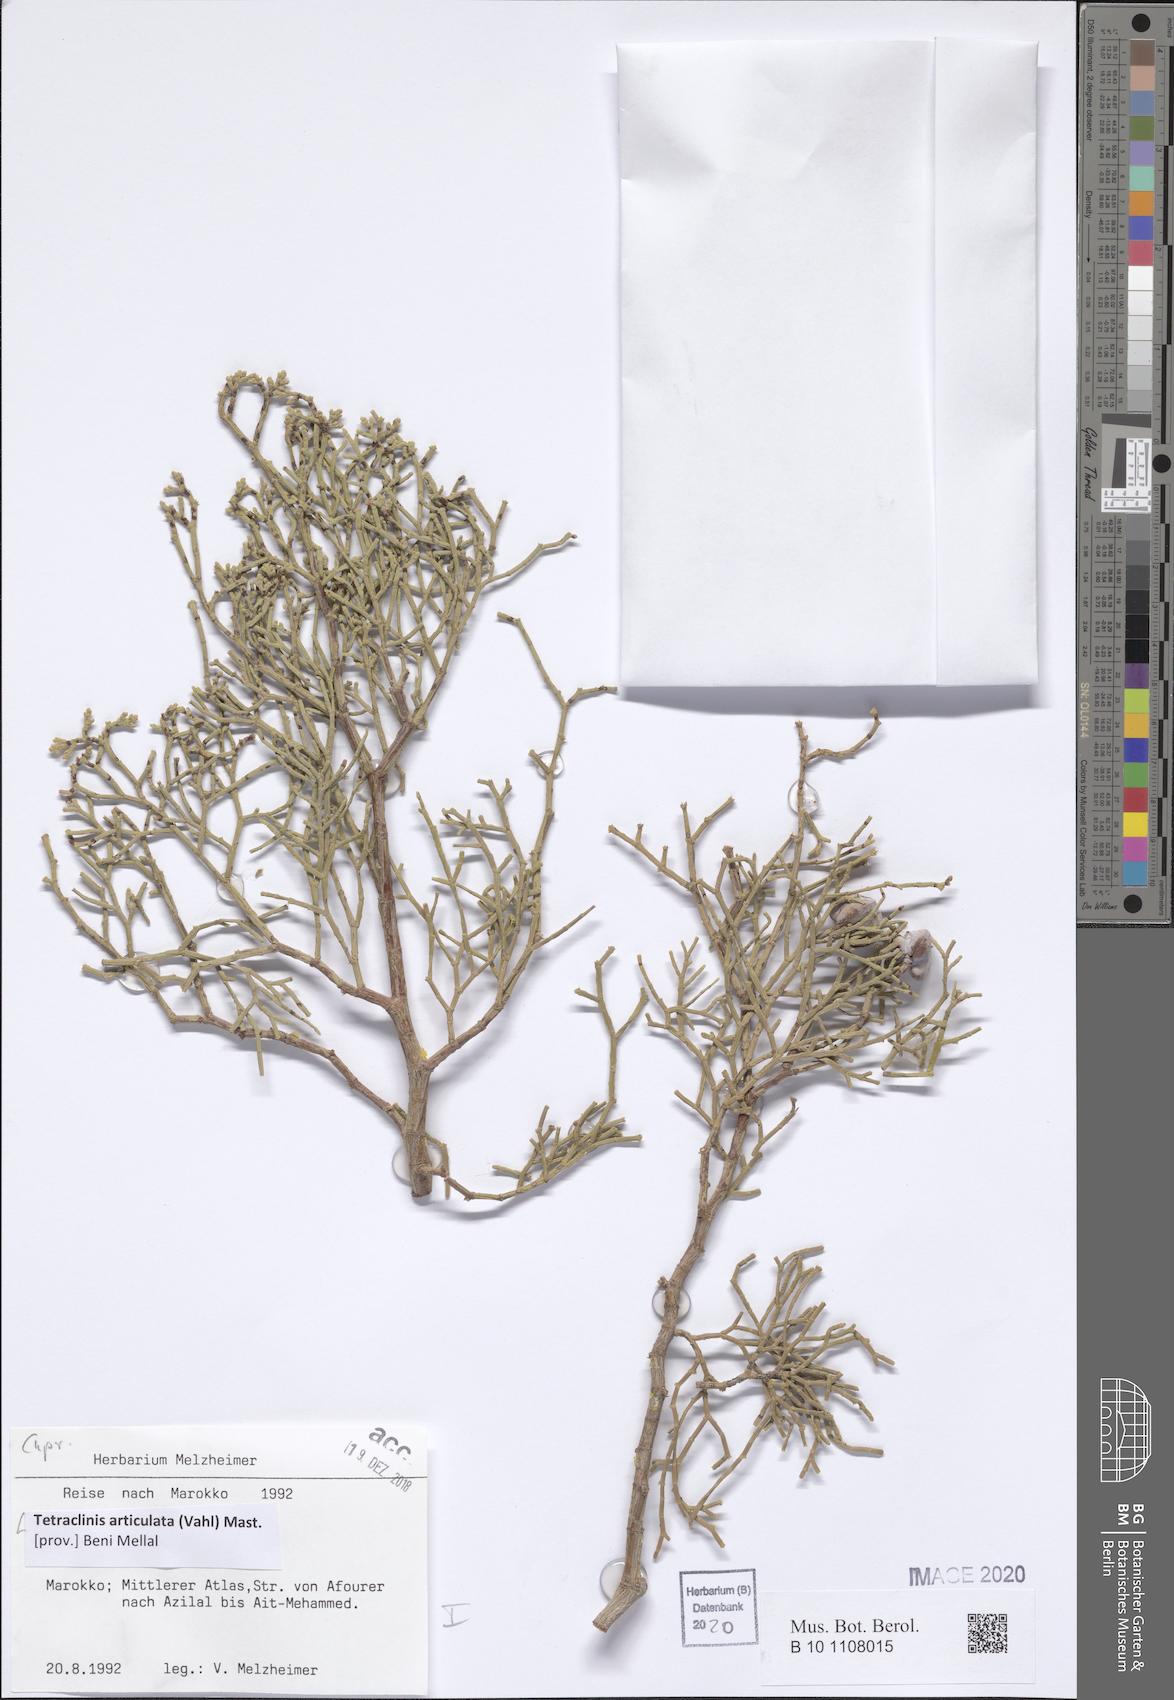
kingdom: Plantae
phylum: Tracheophyta
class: Pinopsida
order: Pinales
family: Cupressaceae
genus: Tetraclinis
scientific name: Tetraclinis articulata
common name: Sandarac
